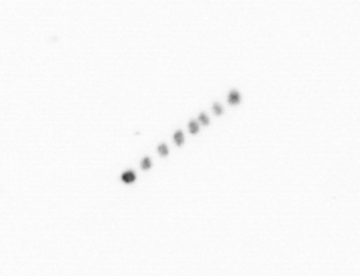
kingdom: Chromista
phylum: Ochrophyta
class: Bacillariophyceae
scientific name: Bacillariophyceae
